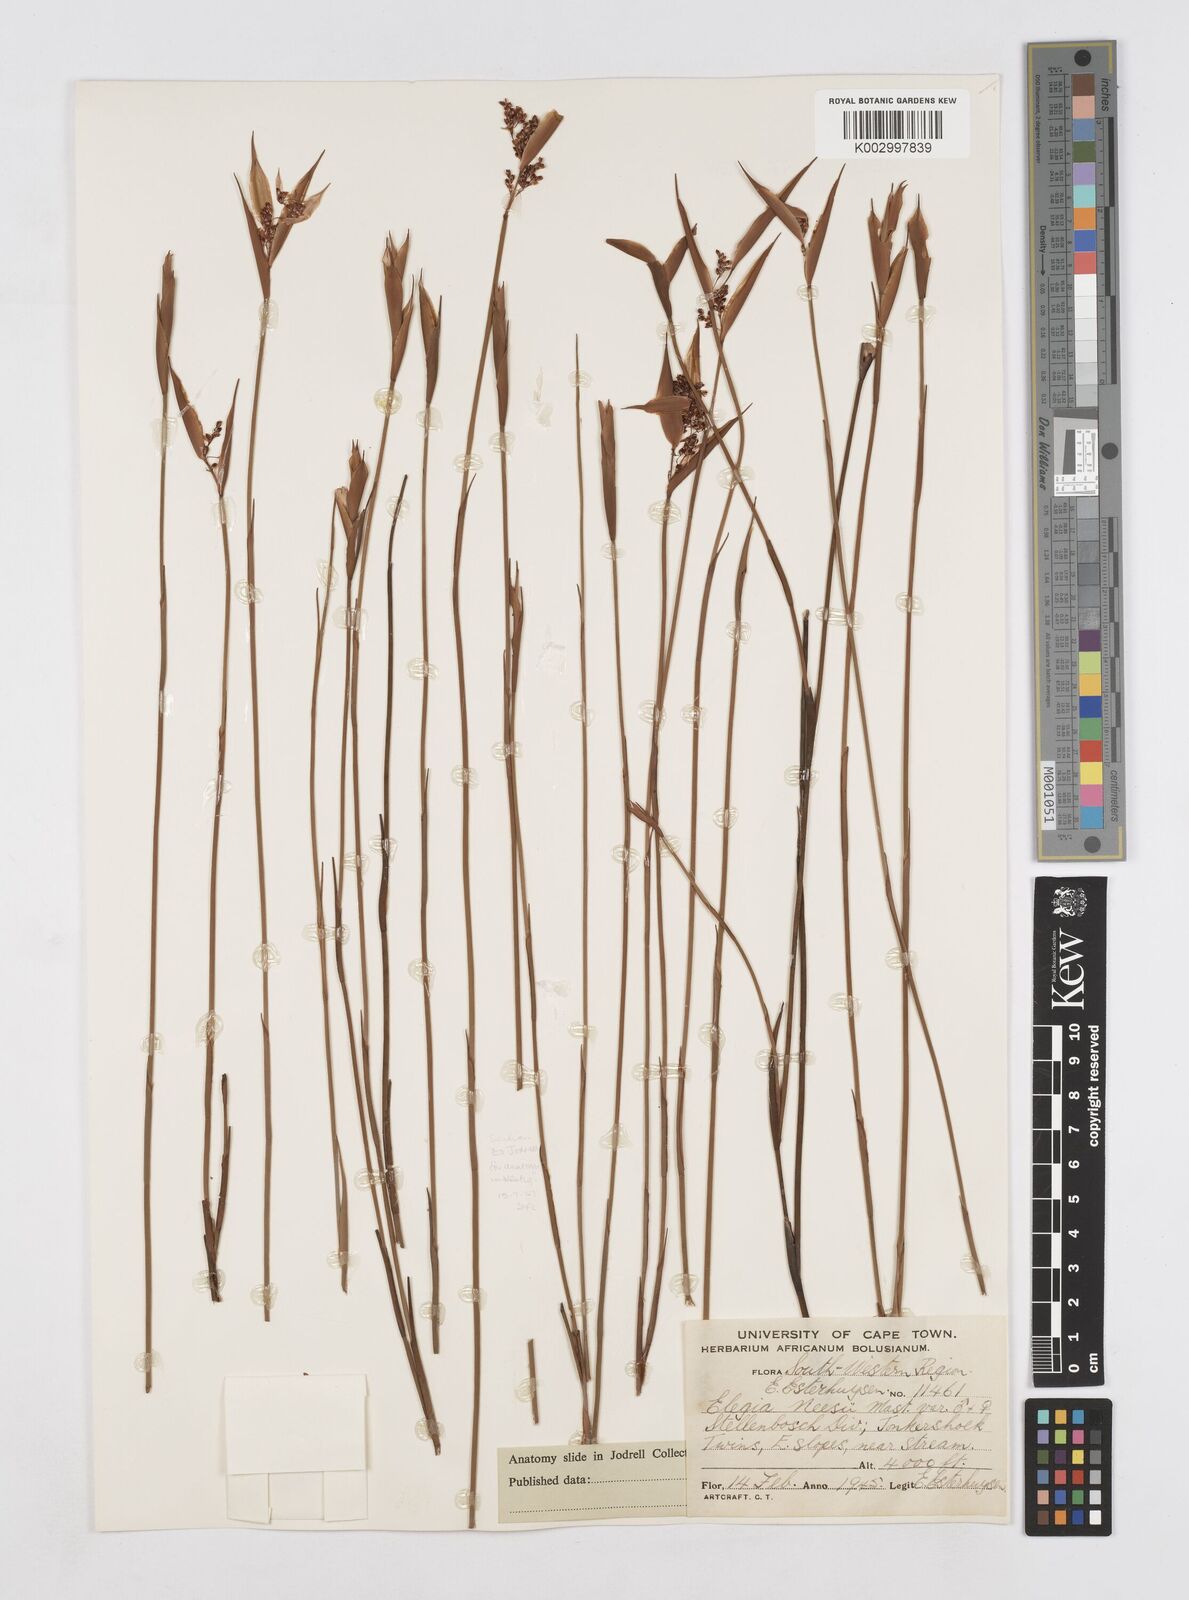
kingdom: Plantae
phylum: Tracheophyta
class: Liliopsida
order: Poales
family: Restionaceae
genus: Elegia
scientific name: Elegia neesii
